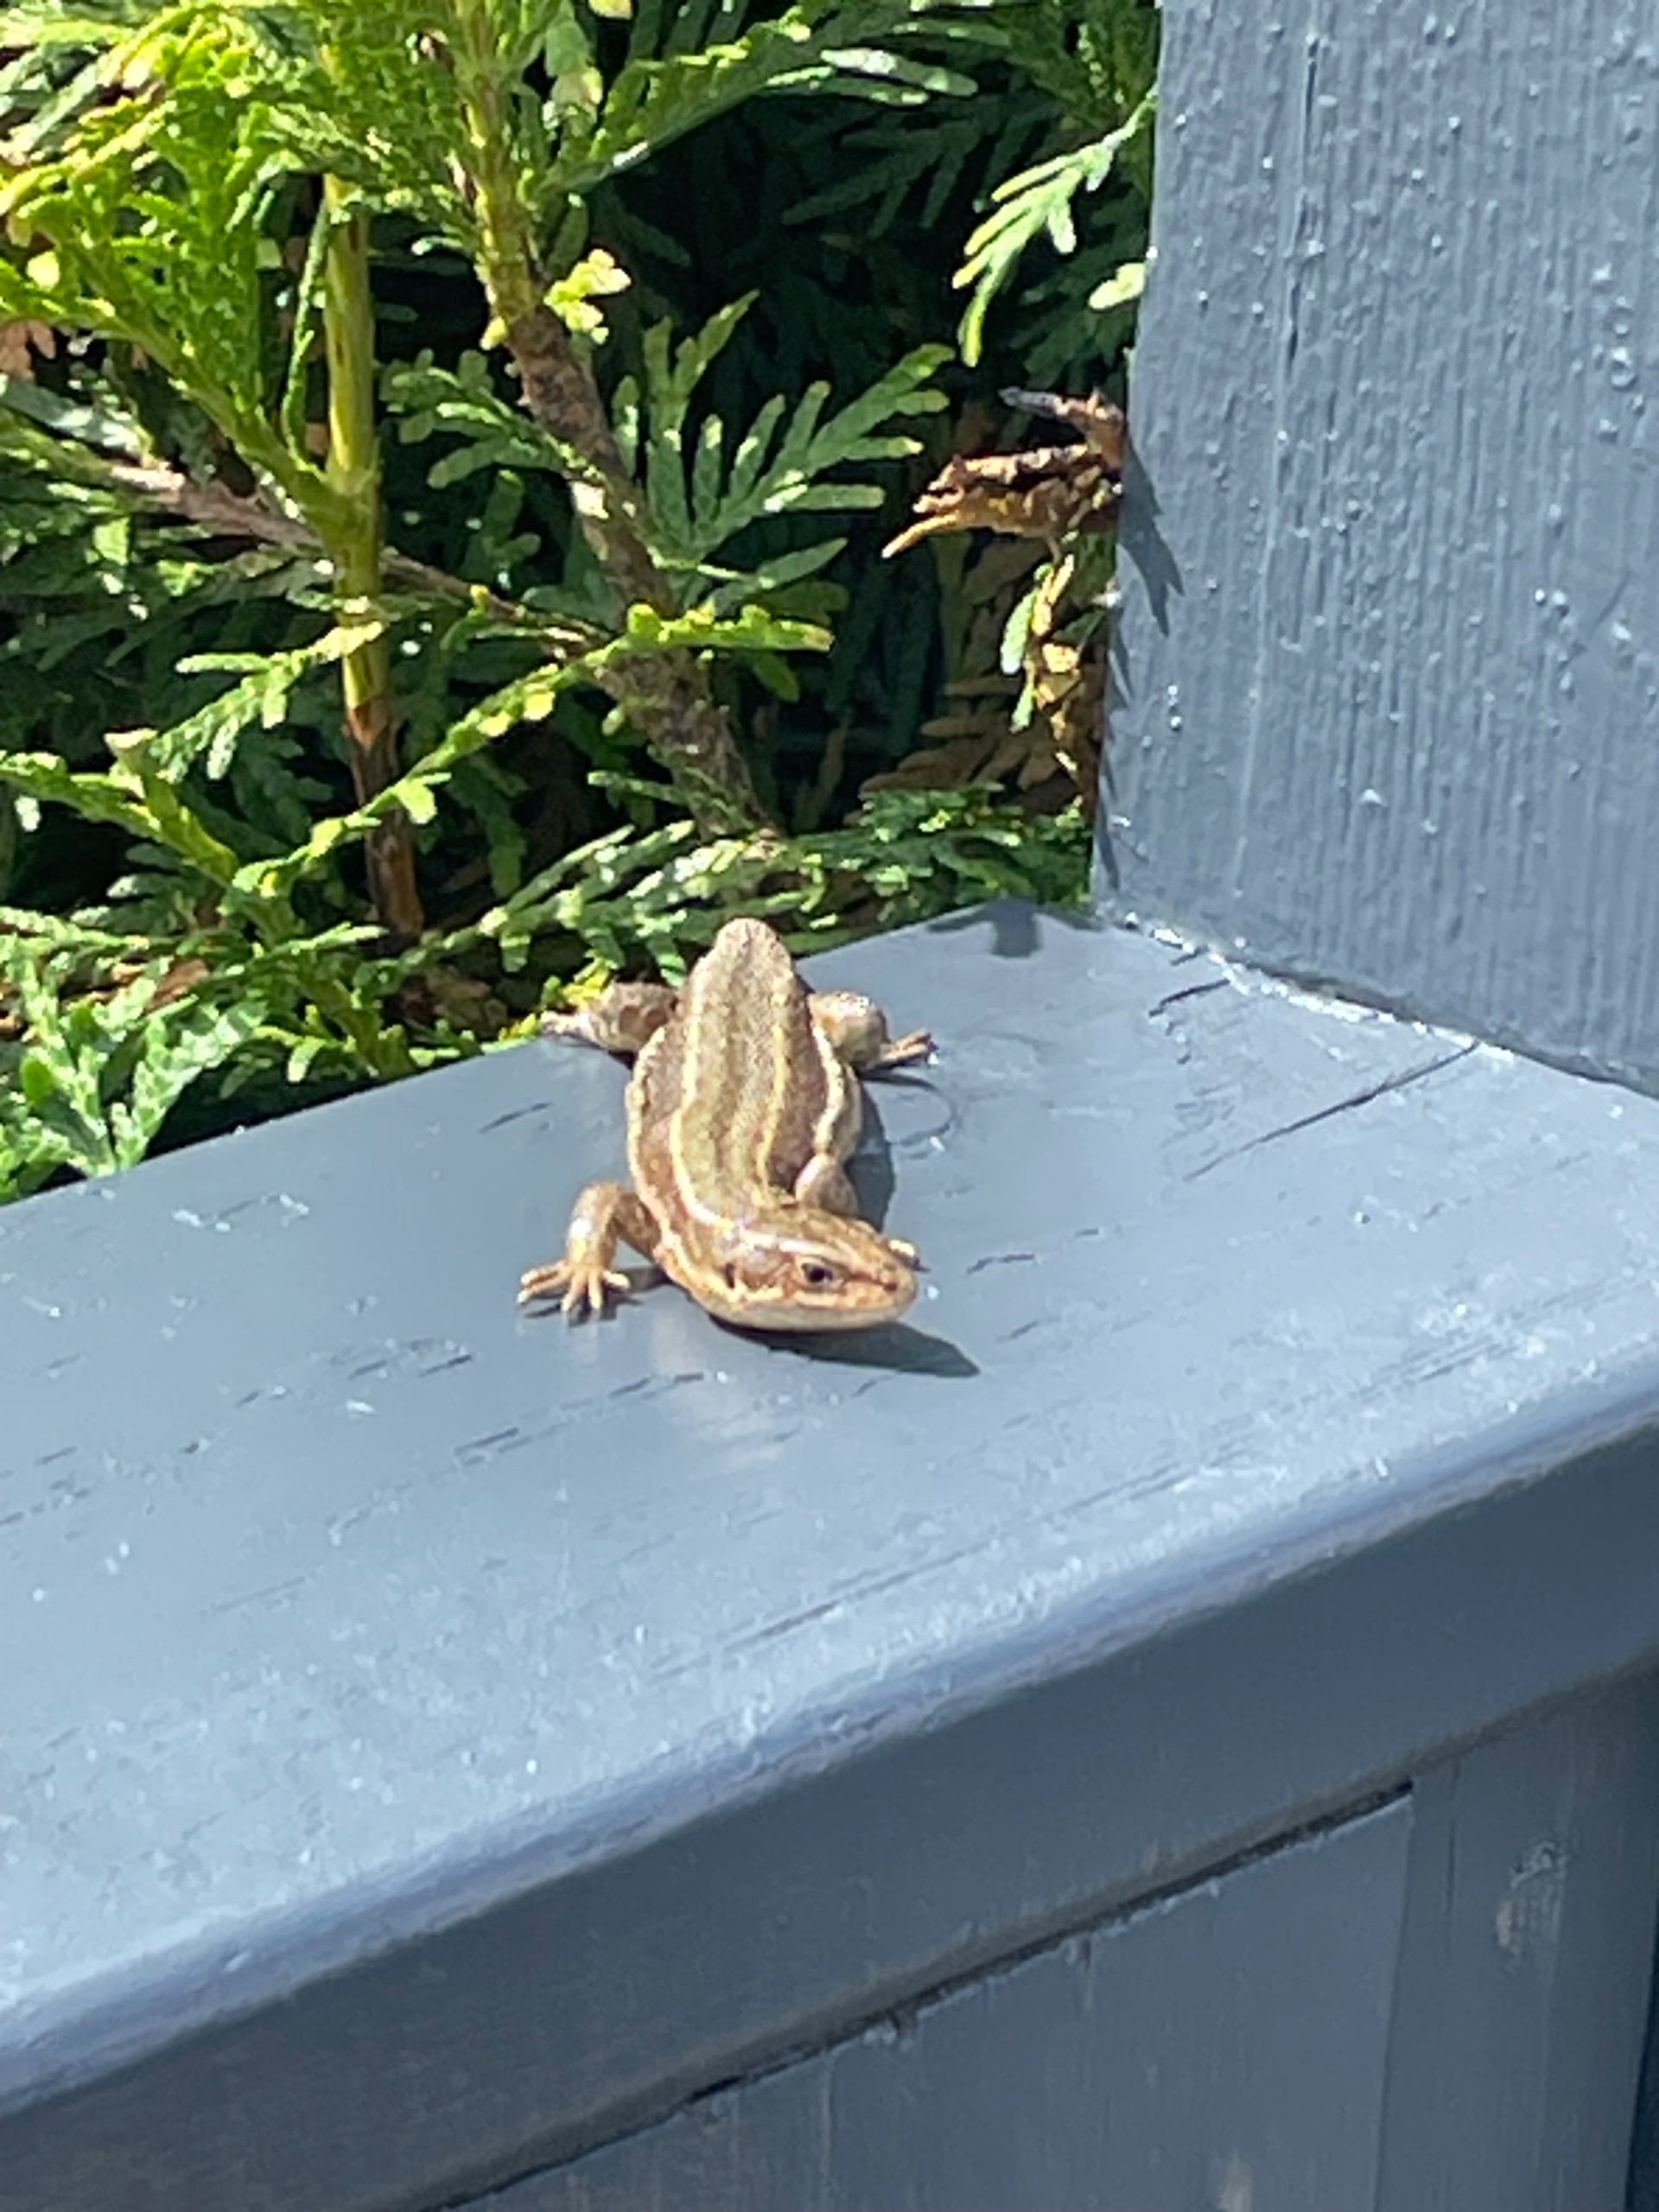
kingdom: Animalia
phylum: Chordata
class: Squamata
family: Lacertidae
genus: Zootoca
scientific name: Zootoca vivipara
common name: Skovfirben
